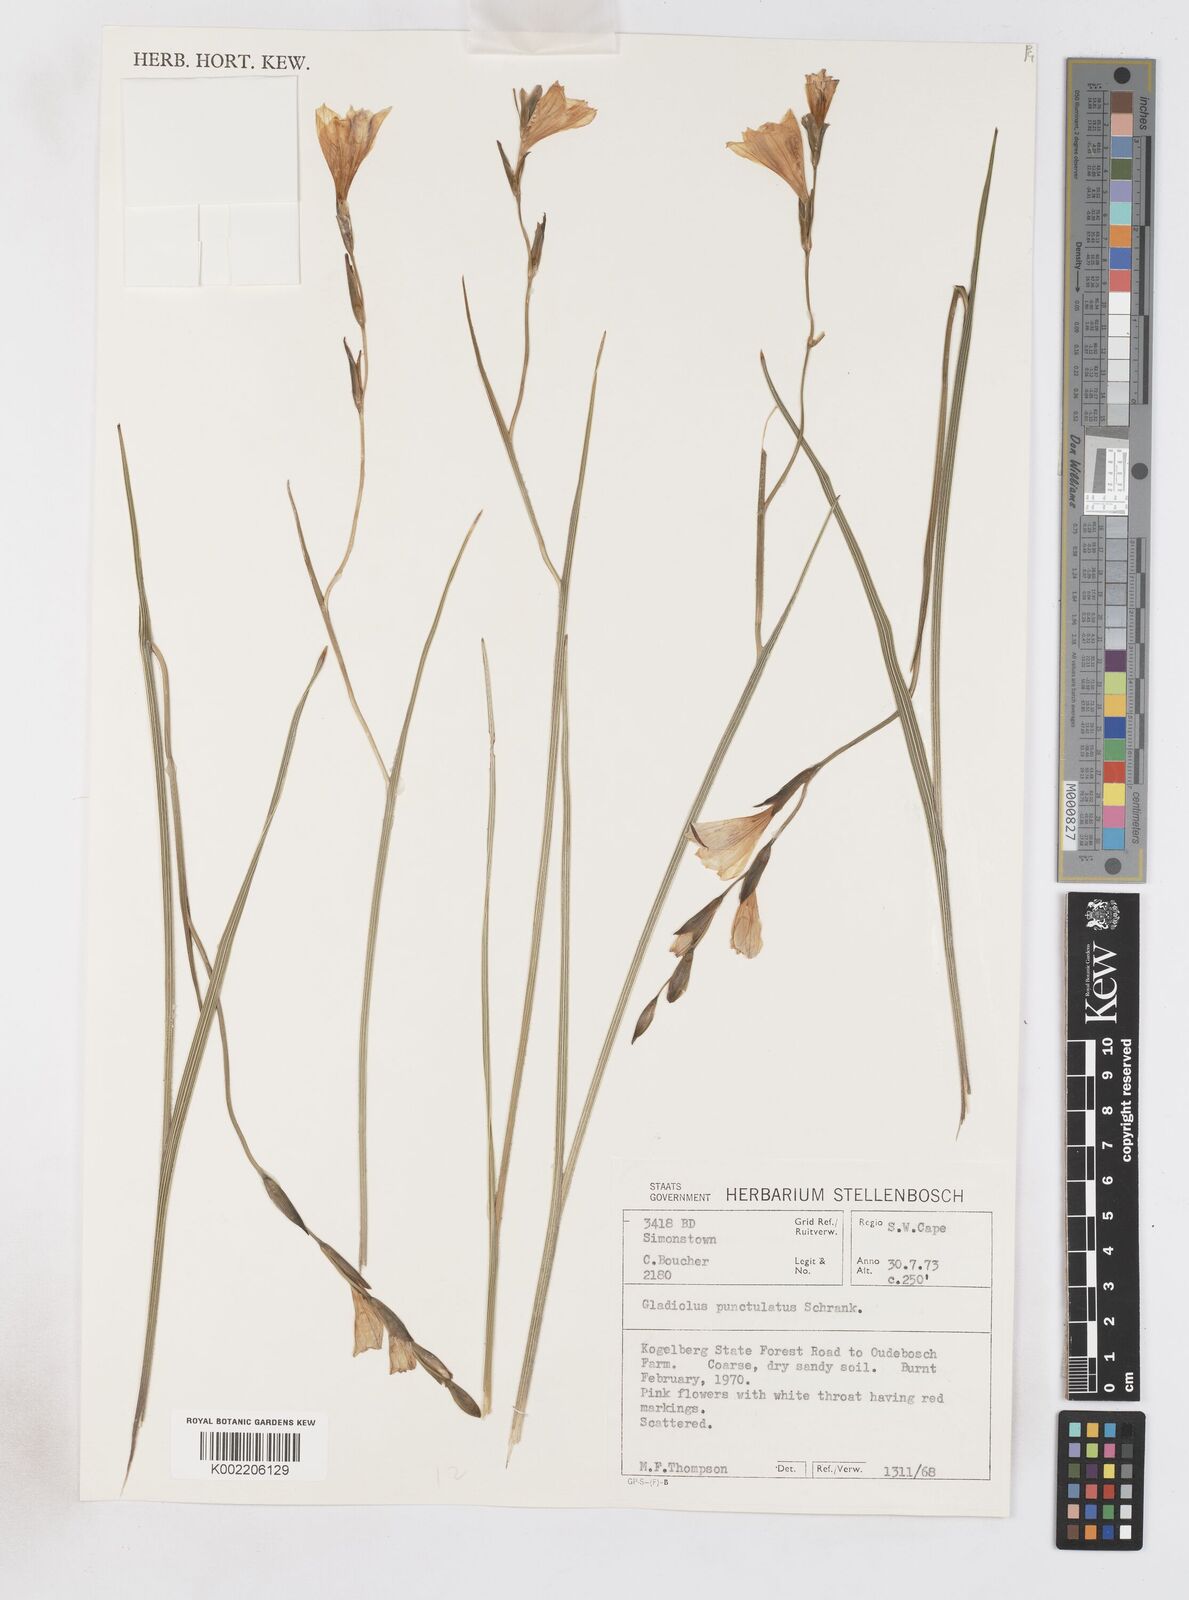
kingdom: Plantae
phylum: Tracheophyta
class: Liliopsida
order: Asparagales
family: Iridaceae
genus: Gladiolus
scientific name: Gladiolus hirsutus
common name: Small pink afrikaner
